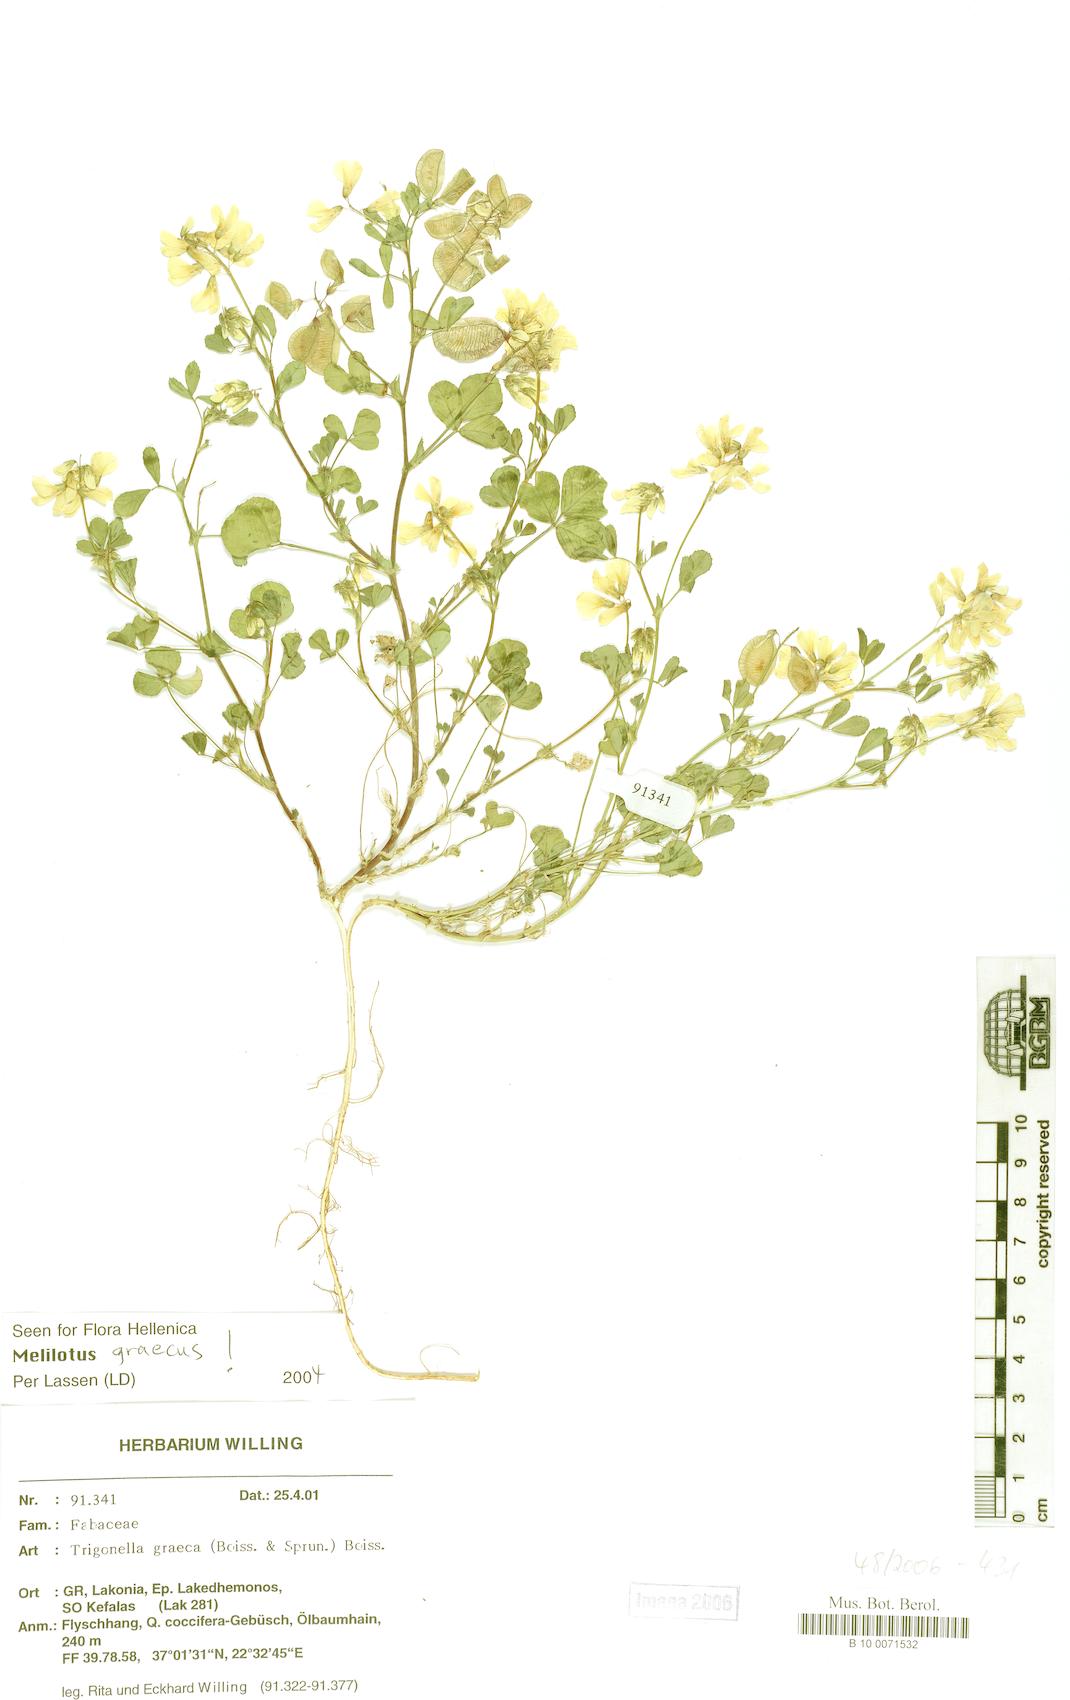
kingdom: Plantae
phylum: Tracheophyta
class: Magnoliopsida
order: Fabales
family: Fabaceae
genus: Trigonella
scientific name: Trigonella graeca
